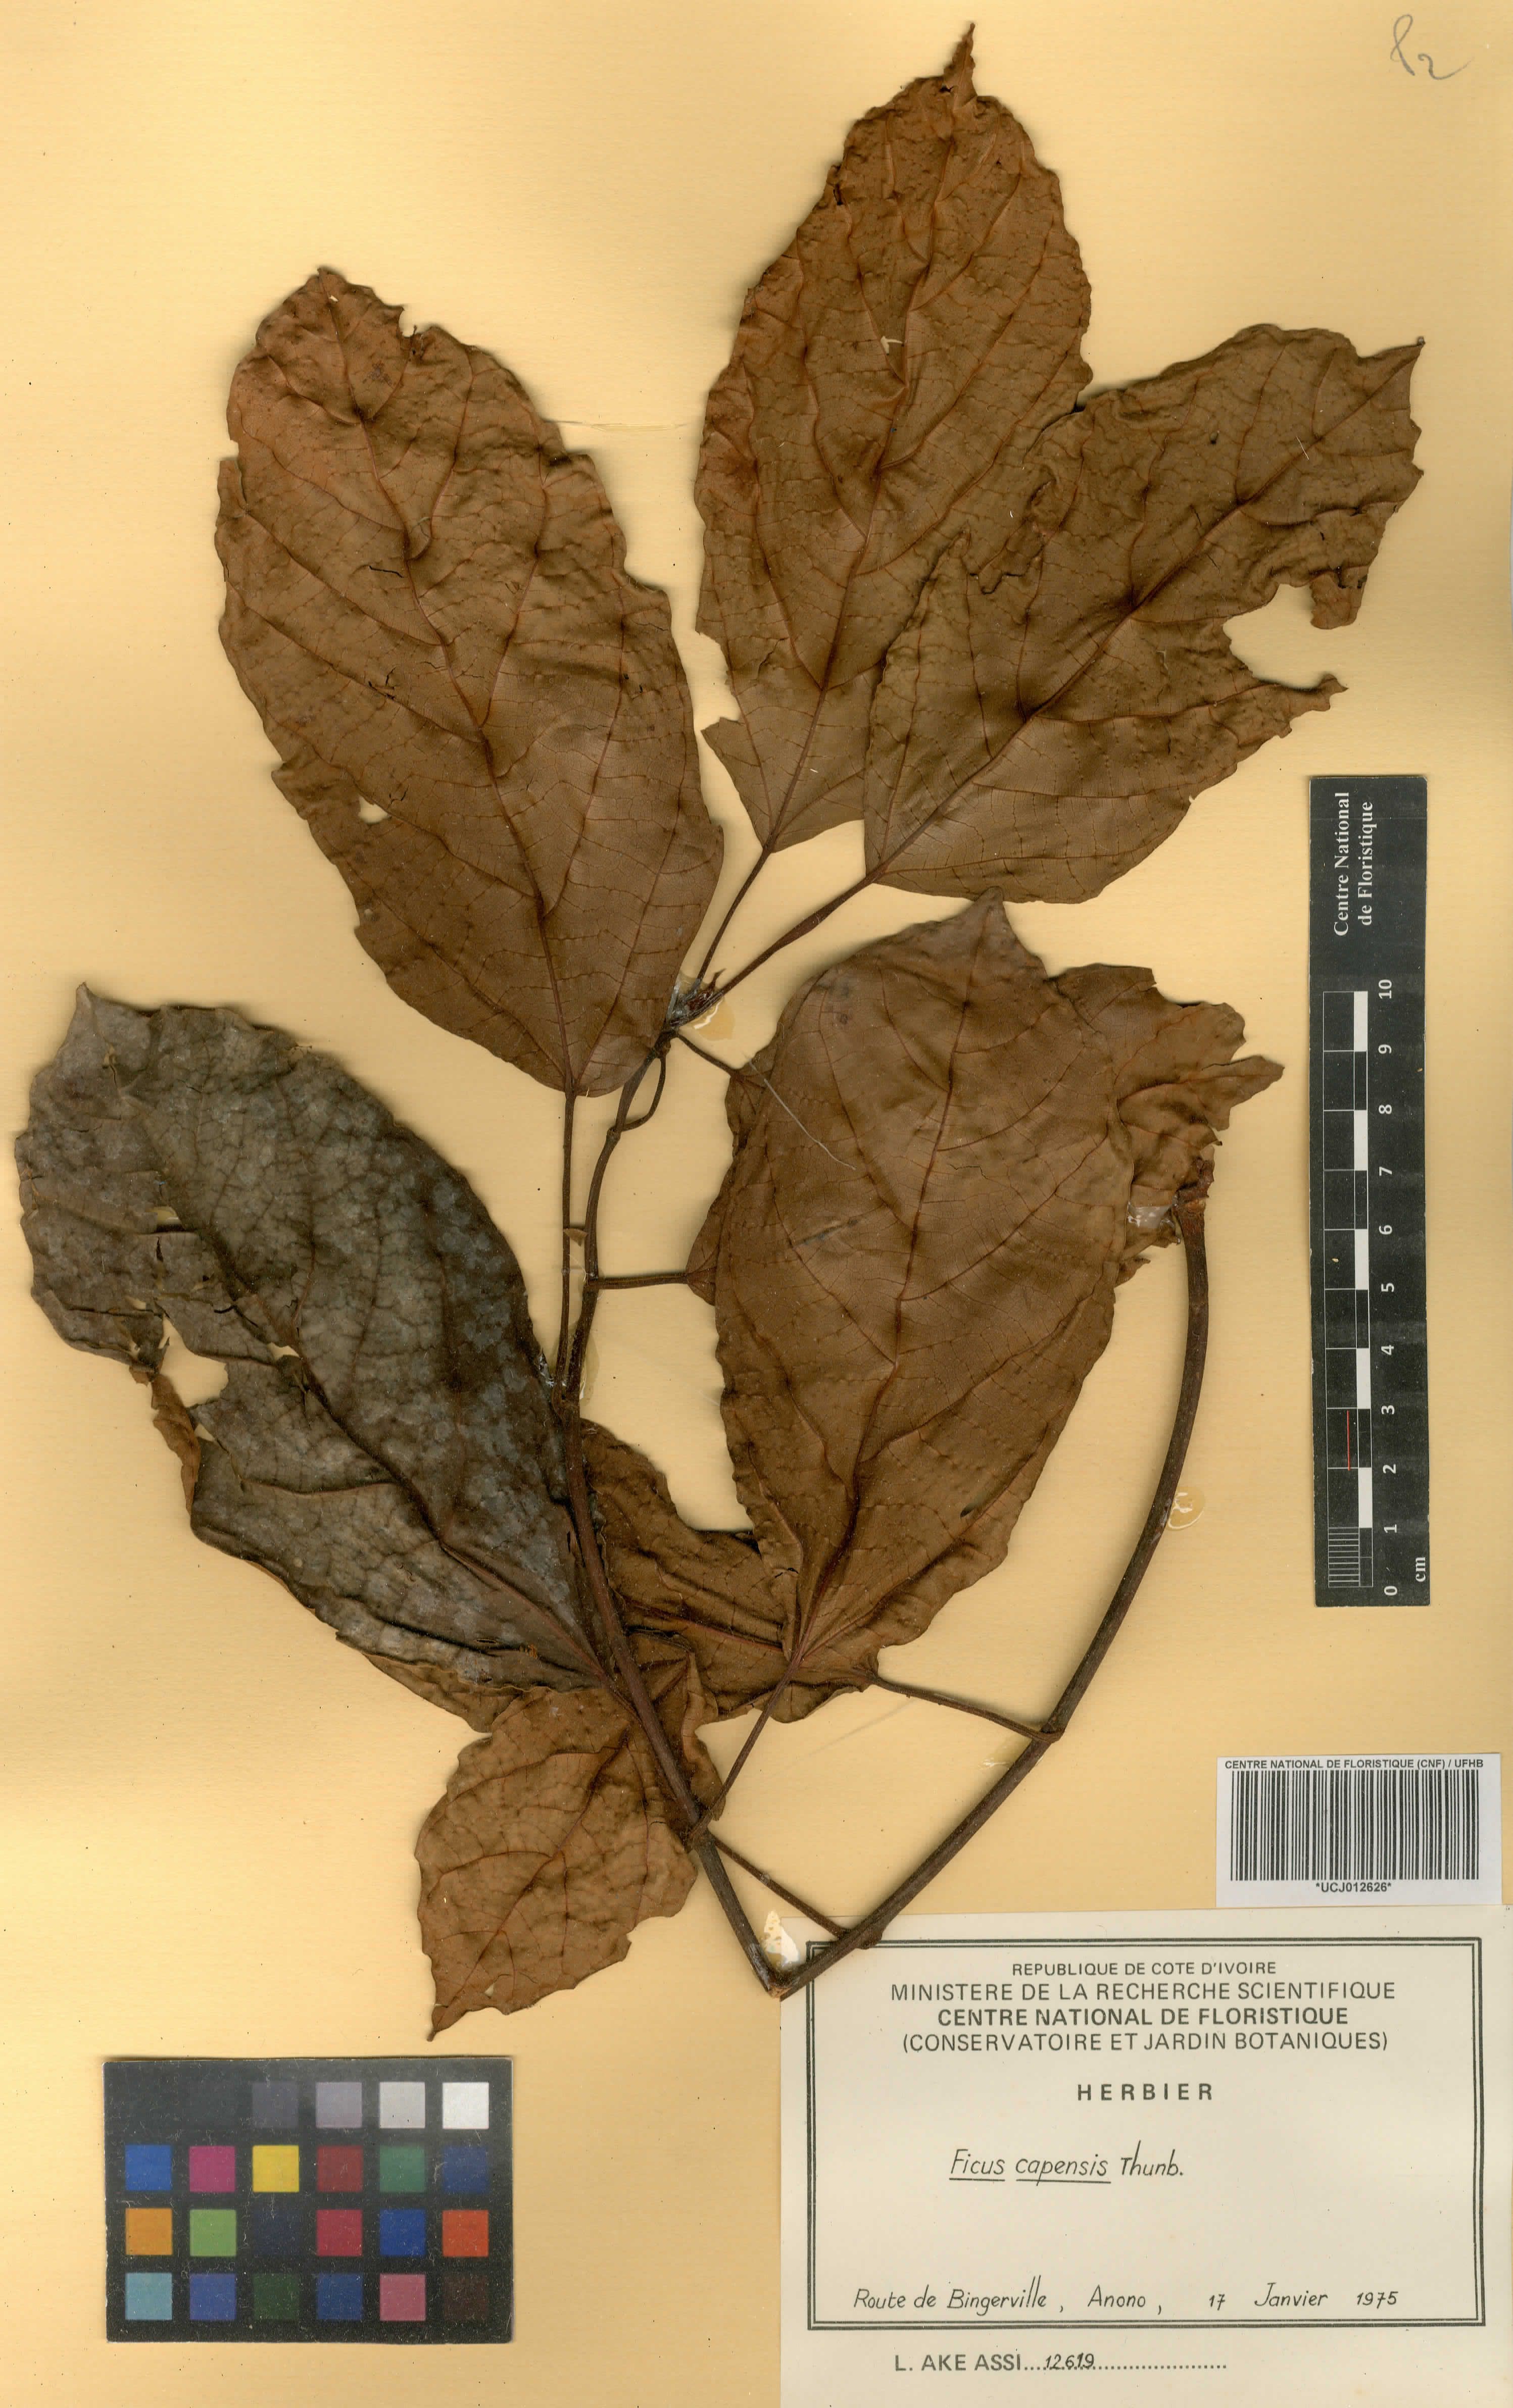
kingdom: Plantae
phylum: Tracheophyta
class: Magnoliopsida
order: Rosales
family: Moraceae
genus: Ficus
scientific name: Ficus sur
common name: Cape fig
